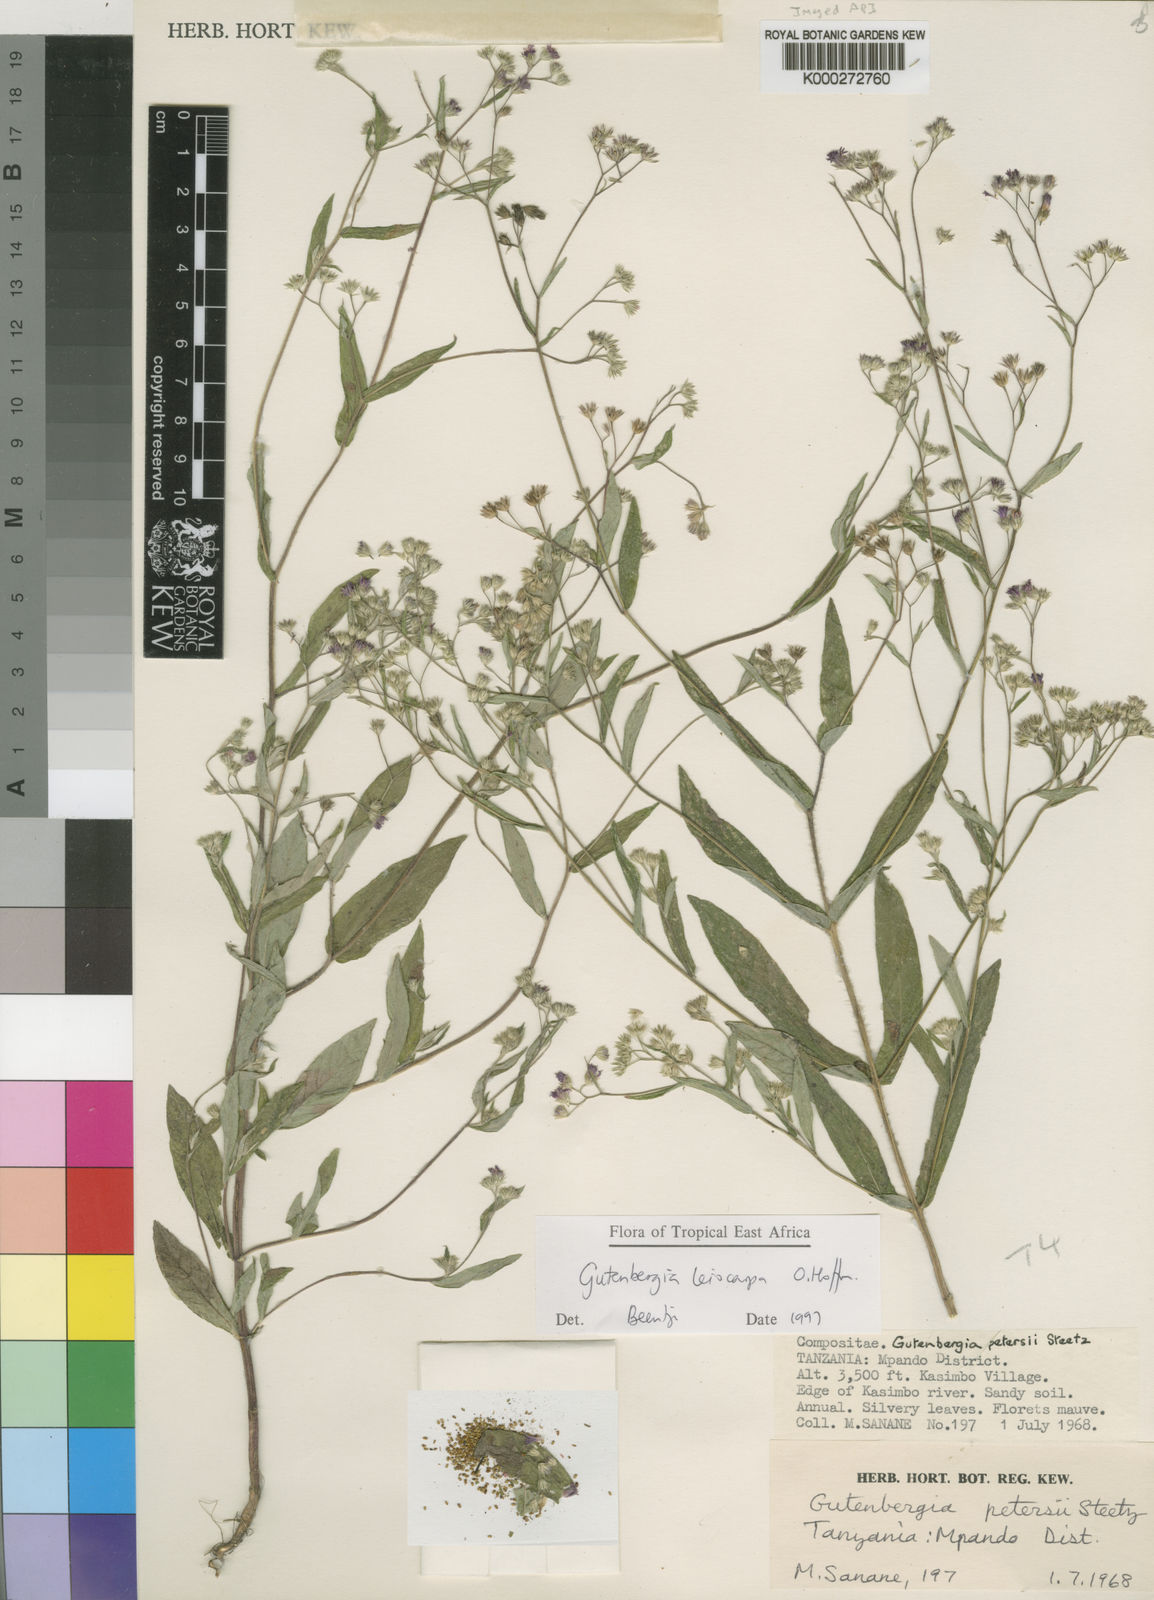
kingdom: Plantae
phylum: Tracheophyta
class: Magnoliopsida
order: Asterales
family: Asteraceae
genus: Gutenbergia
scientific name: Gutenbergia gracilis
